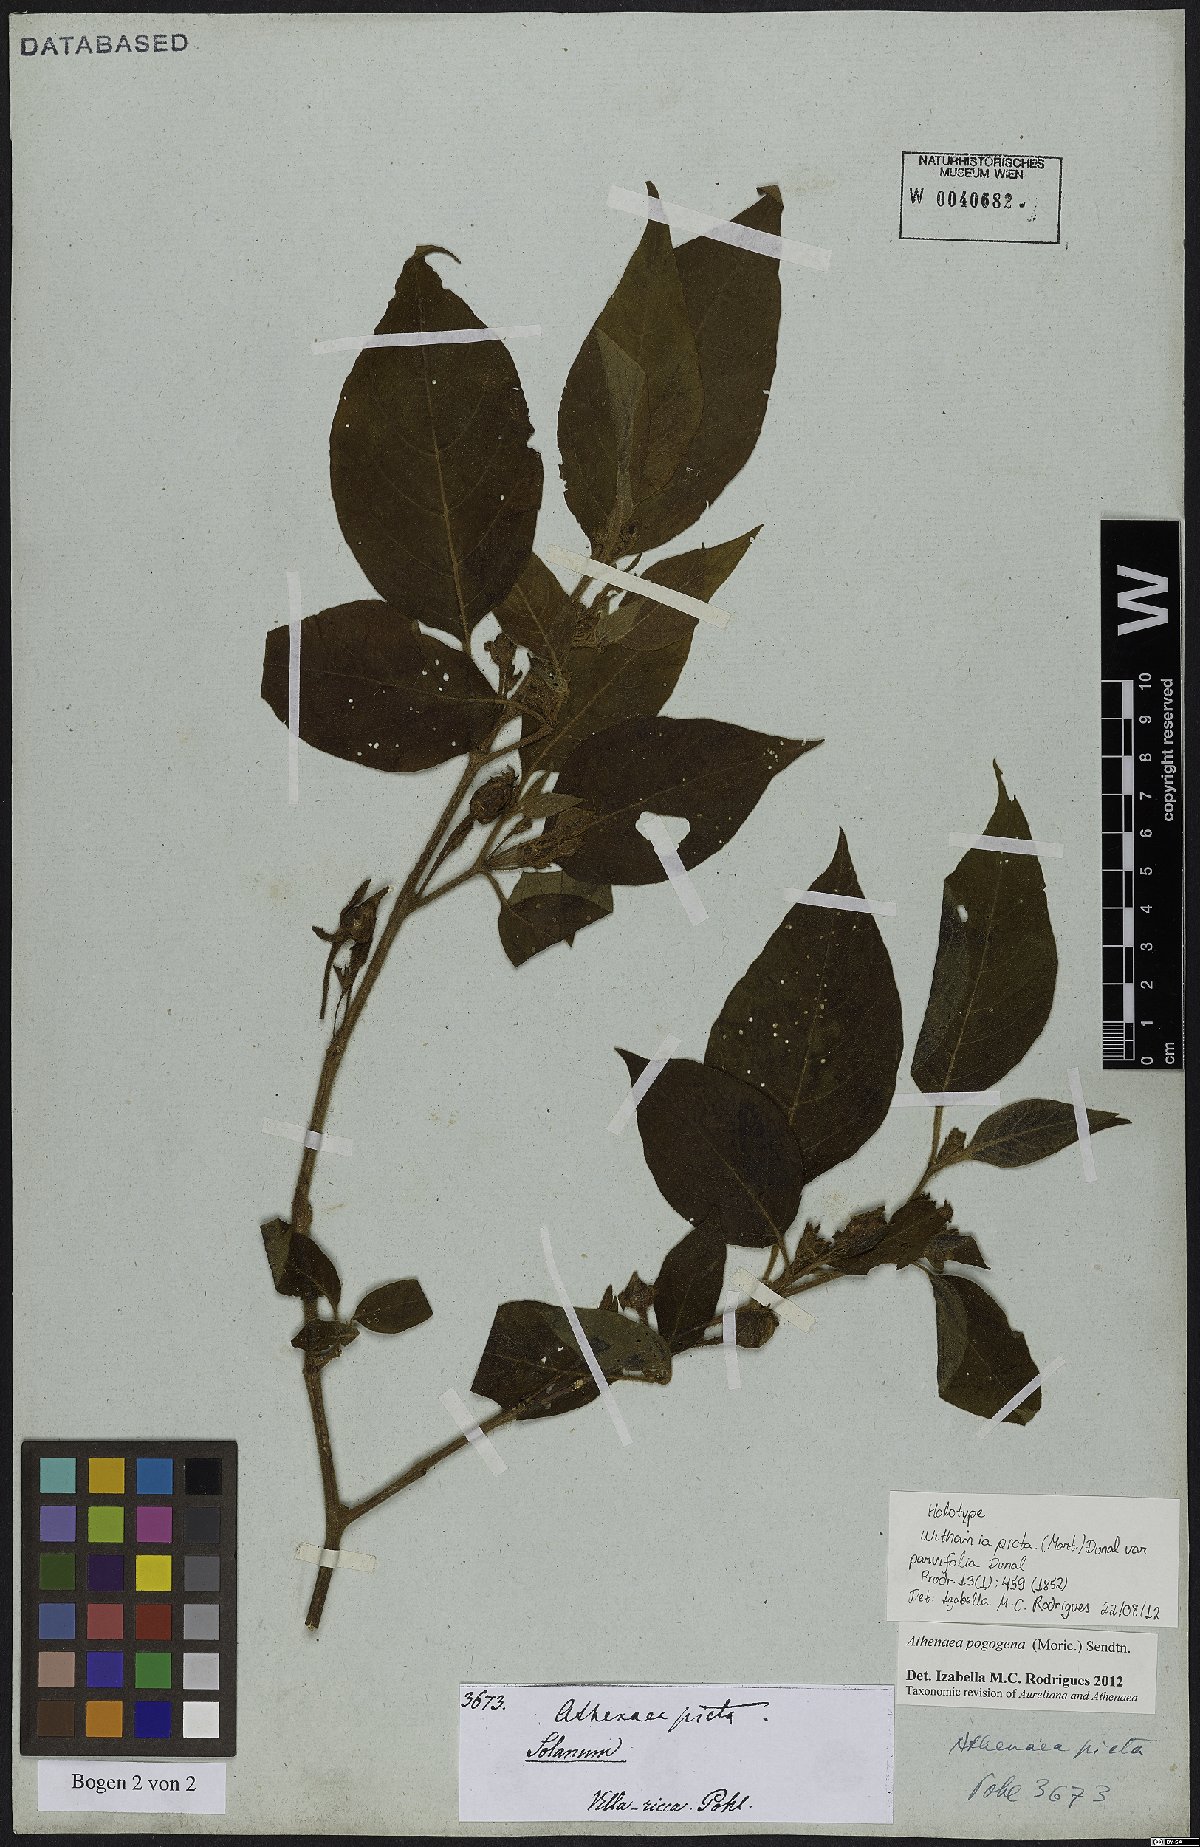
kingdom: Plantae
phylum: Tracheophyta
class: Magnoliopsida
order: Solanales
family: Solanaceae
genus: Athenaea
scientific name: Athenaea pogogena
